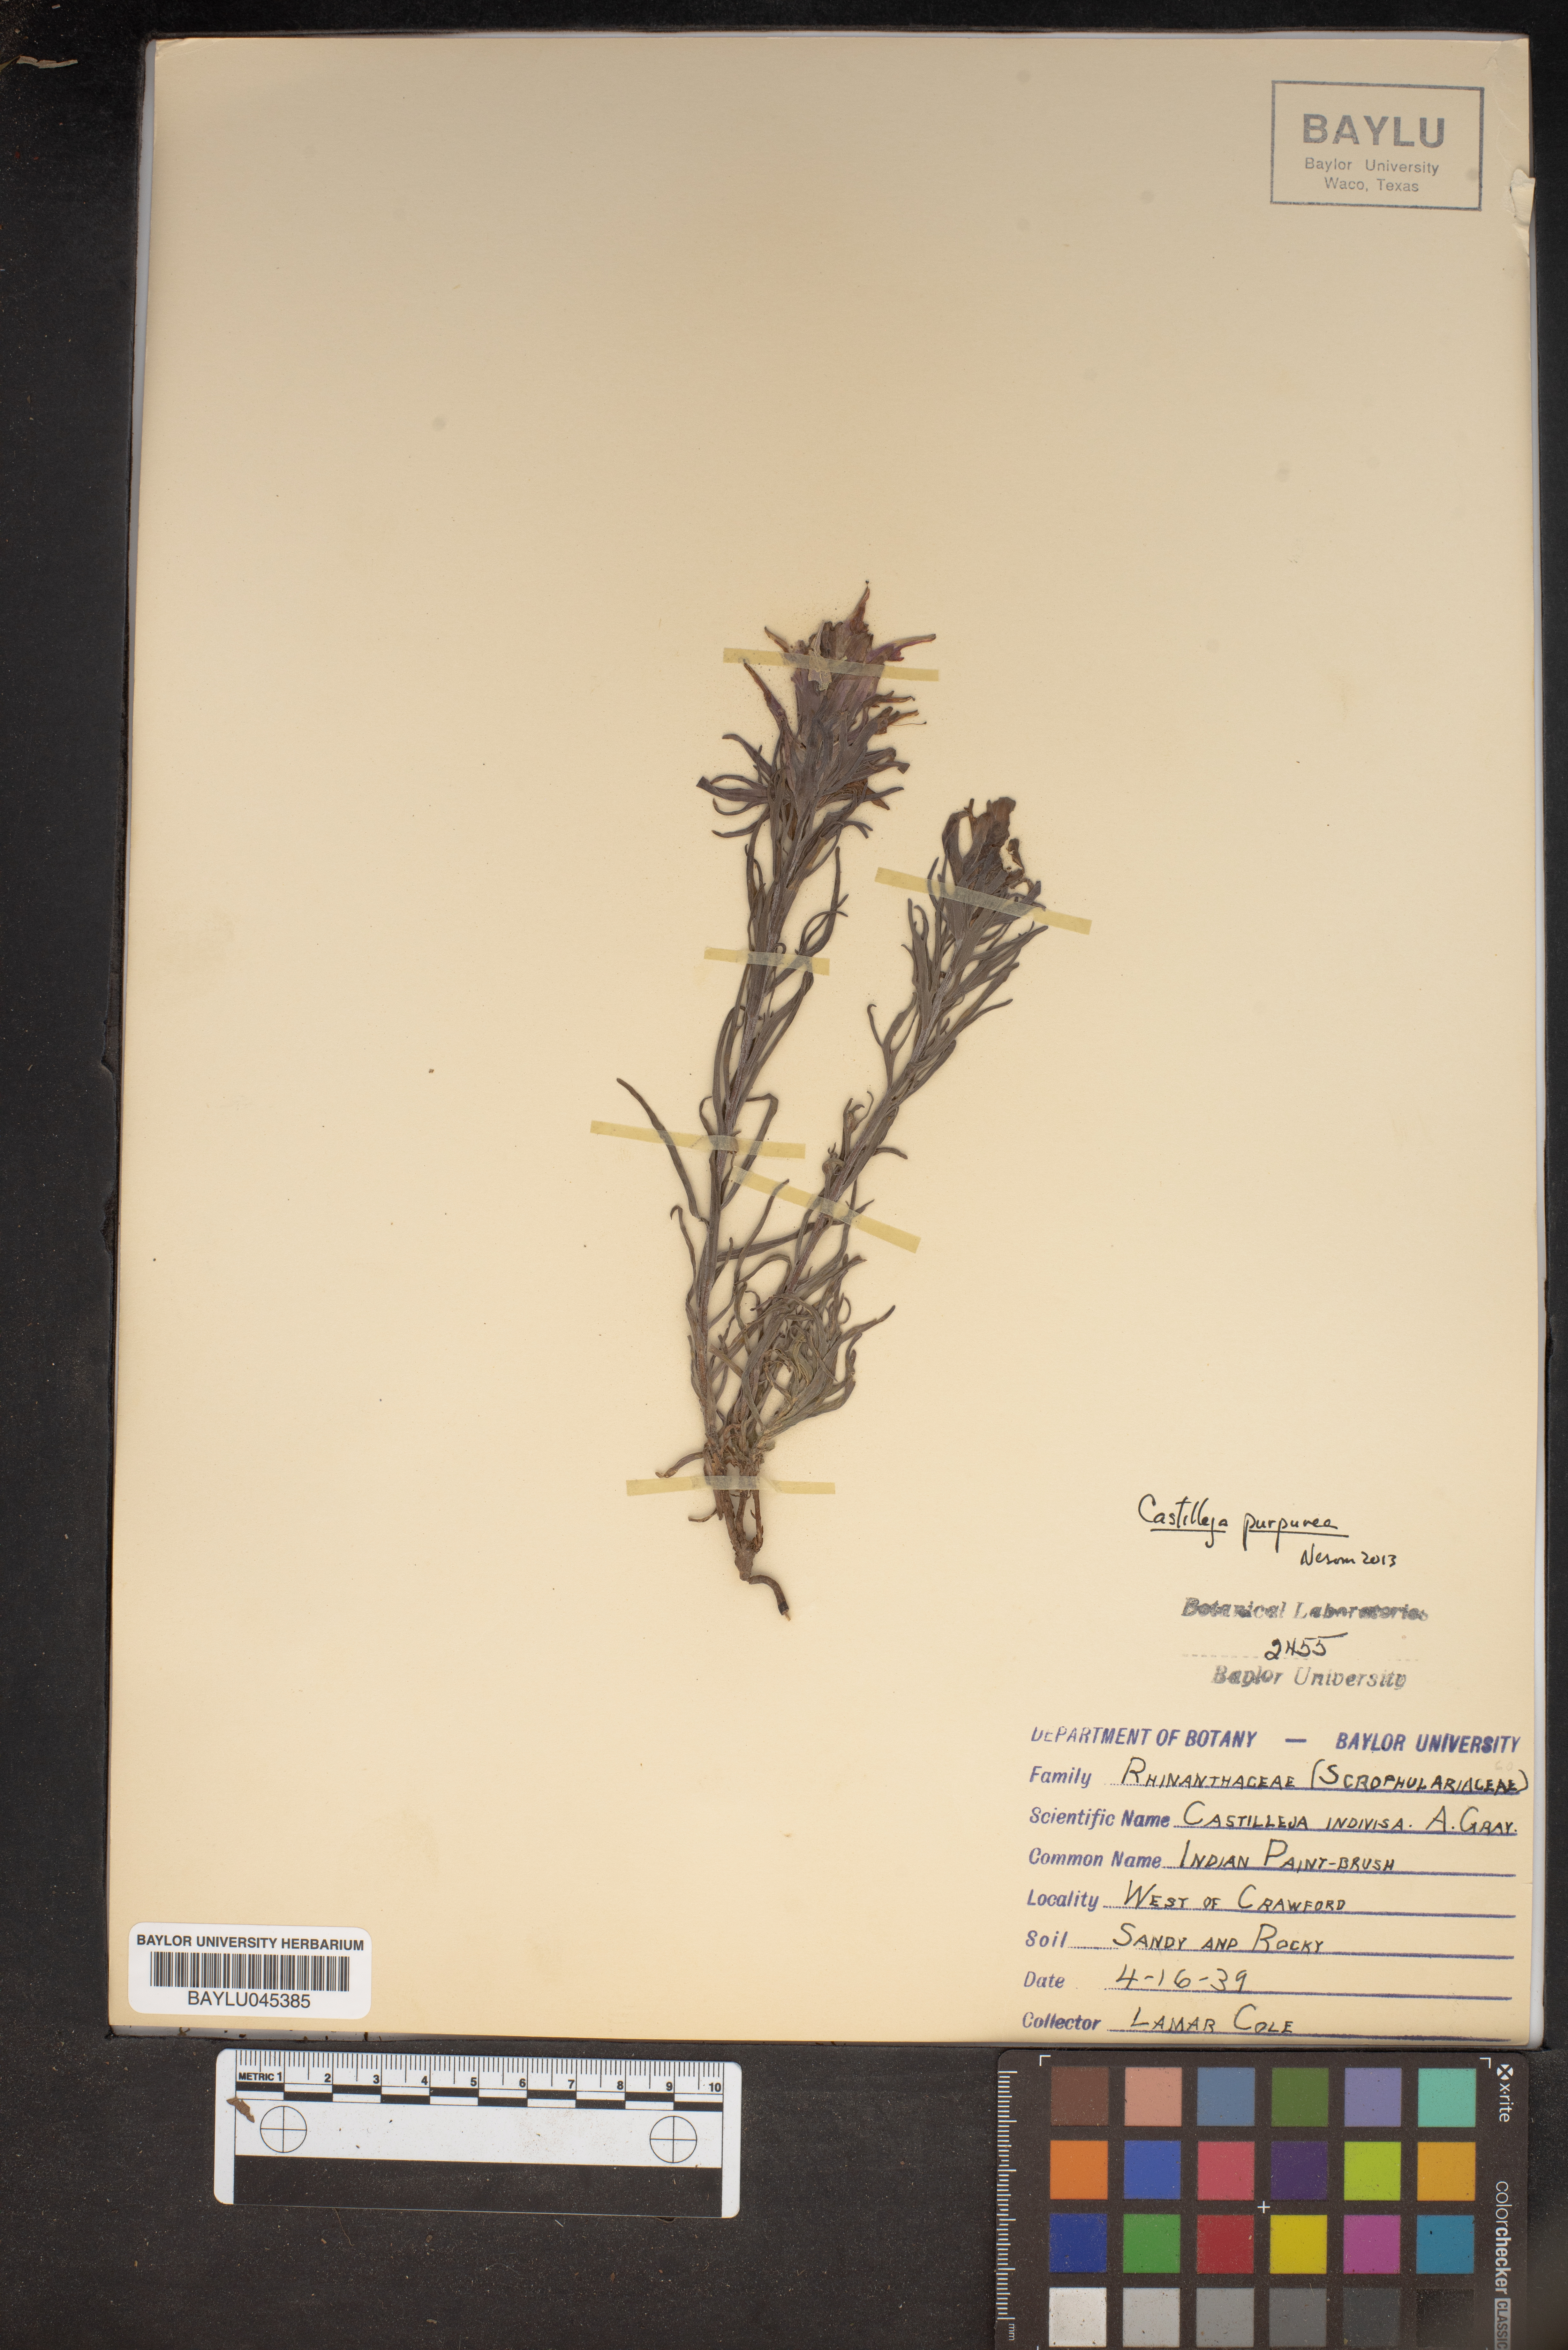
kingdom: Plantae
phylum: Tracheophyta
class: Magnoliopsida
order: Lamiales
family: Orobanchaceae
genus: Castilleja
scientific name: Castilleja indivisa
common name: Texas paintbrush
